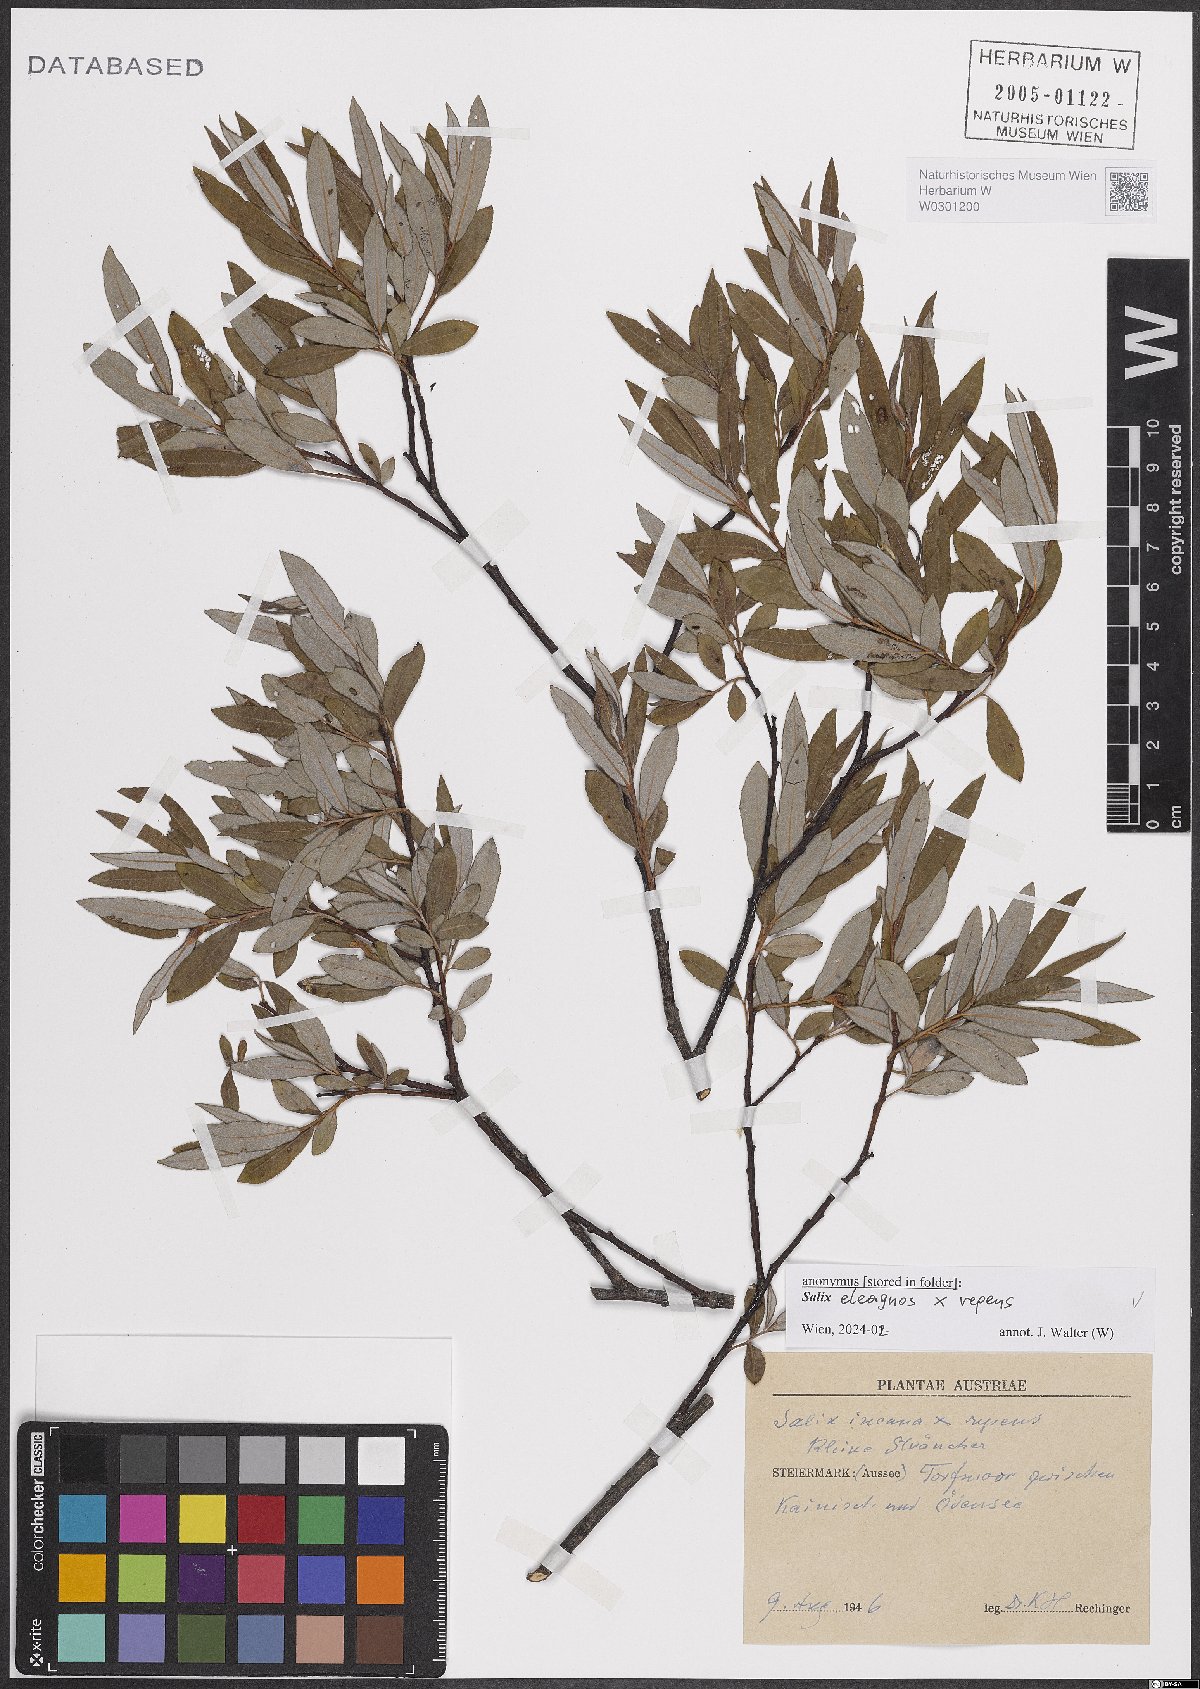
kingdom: Plantae
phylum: Tracheophyta
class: Magnoliopsida
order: Malpighiales
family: Salicaceae
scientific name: Salicaceae
